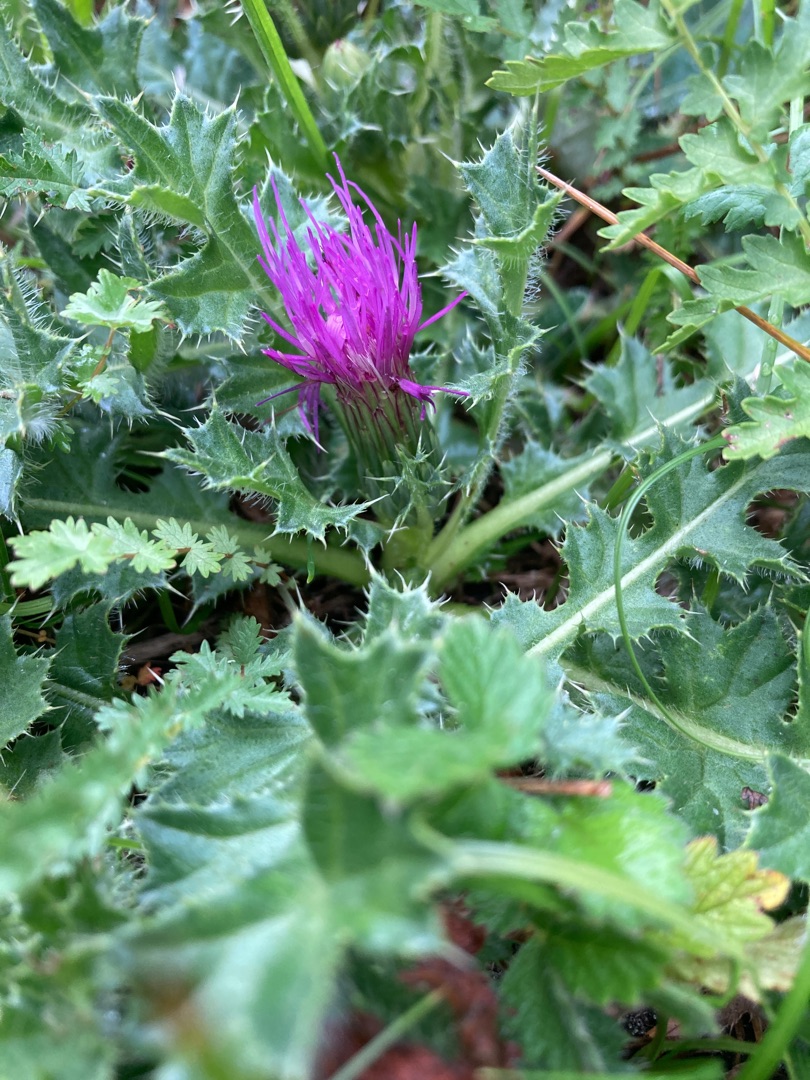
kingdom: Plantae
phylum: Tracheophyta
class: Magnoliopsida
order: Asterales
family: Asteraceae
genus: Cirsium
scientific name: Cirsium acaule
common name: Lav tidsel
